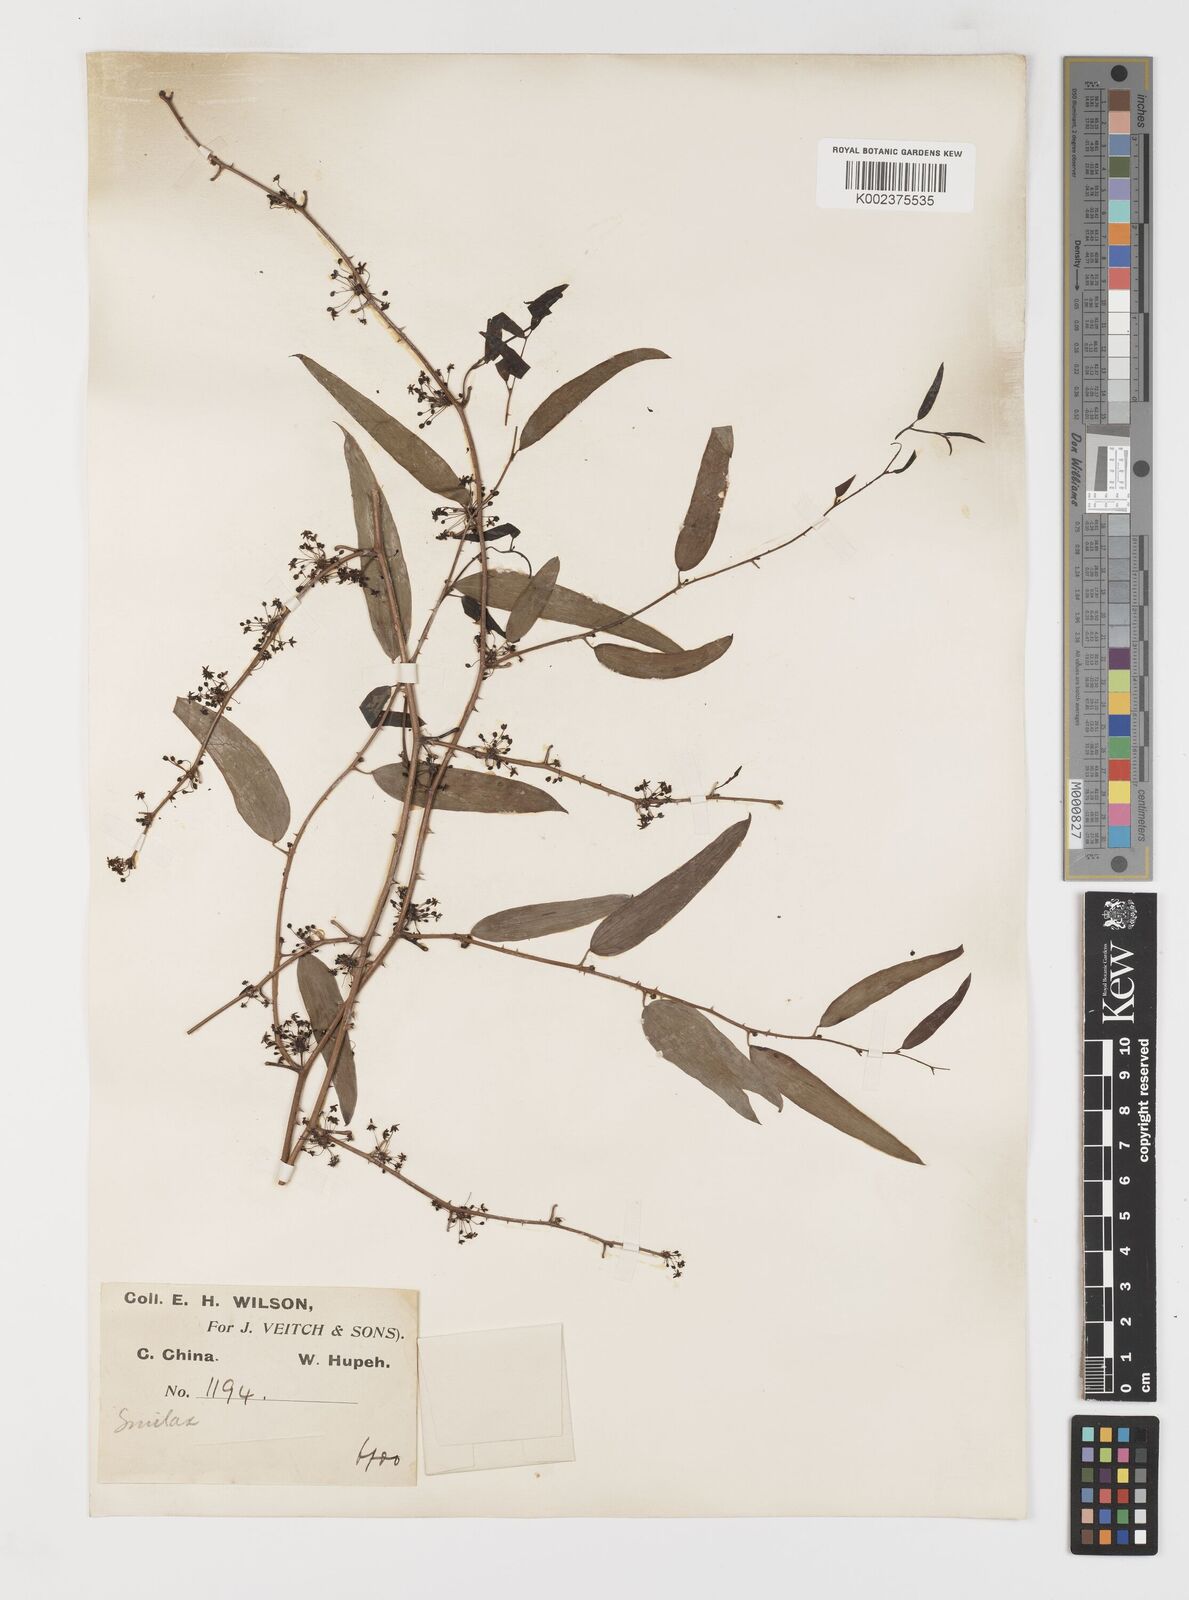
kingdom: Plantae
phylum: Tracheophyta
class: Liliopsida
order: Liliales
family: Smilacaceae
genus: Smilax
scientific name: Smilax microphylla
